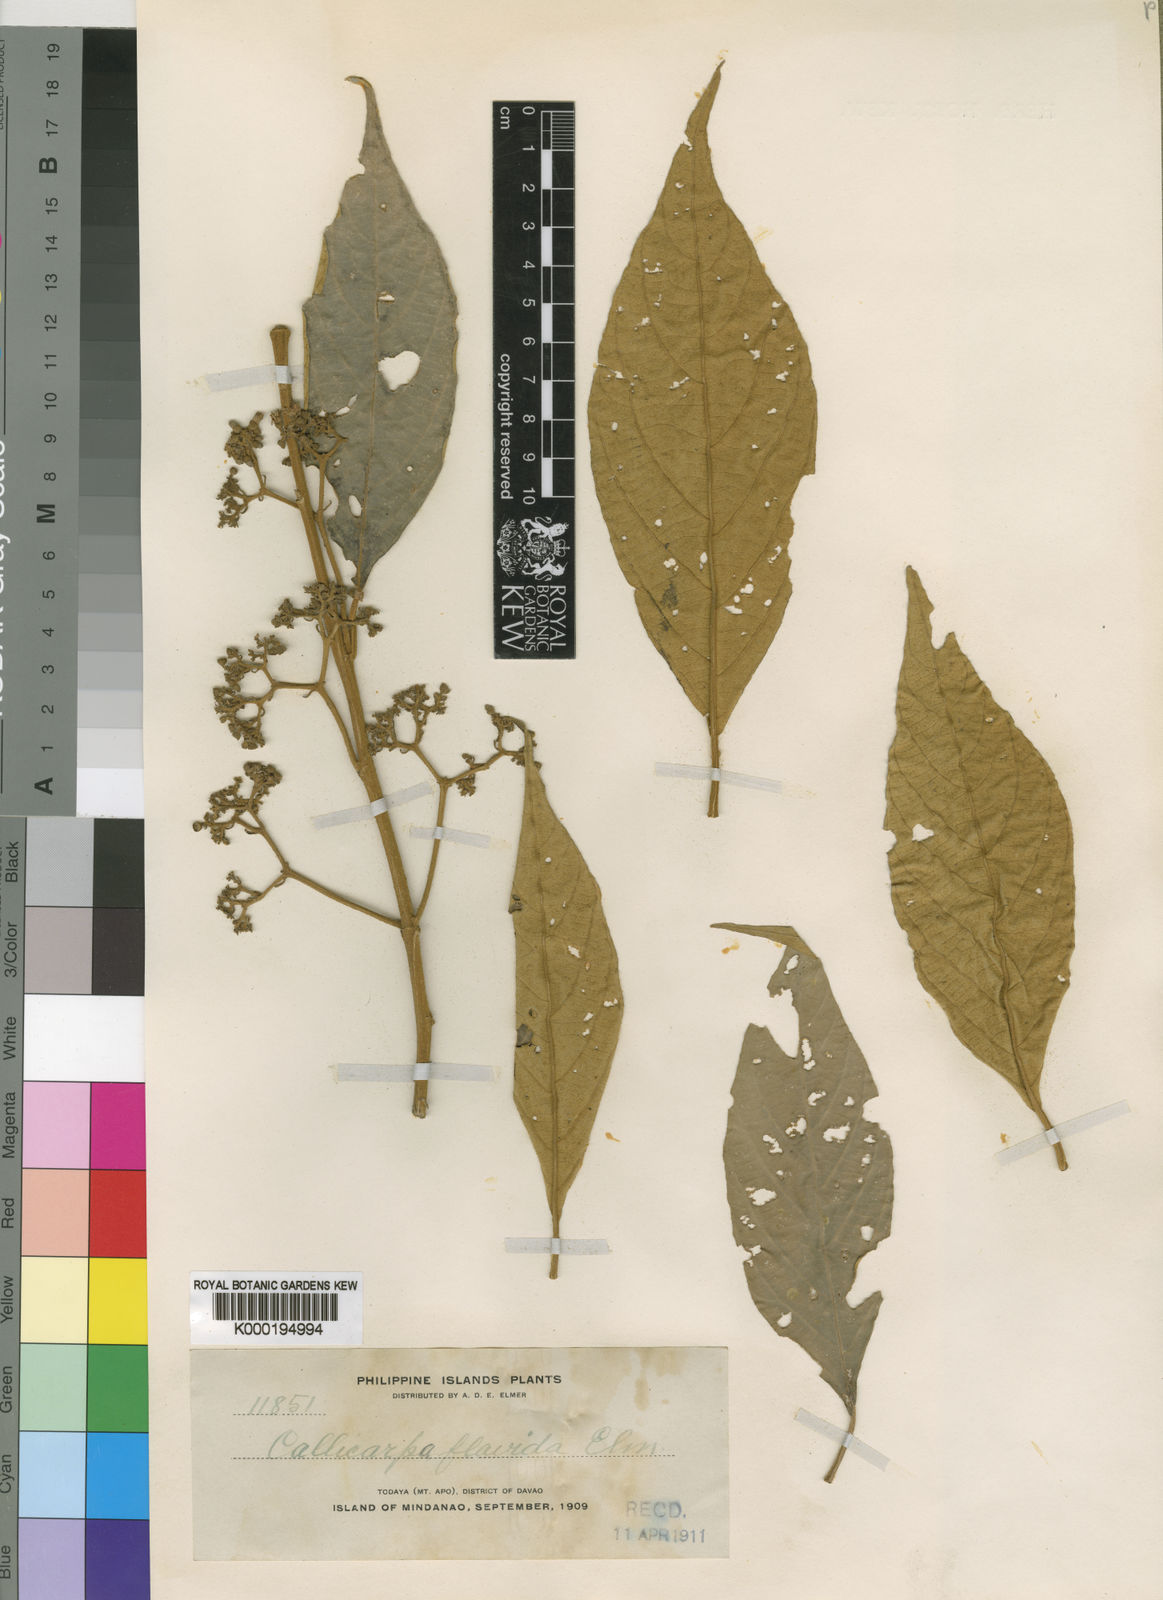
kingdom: Plantae
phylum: Tracheophyta
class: Magnoliopsida
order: Lamiales
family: Lamiaceae
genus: Callicarpa
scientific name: Callicarpa flavida
